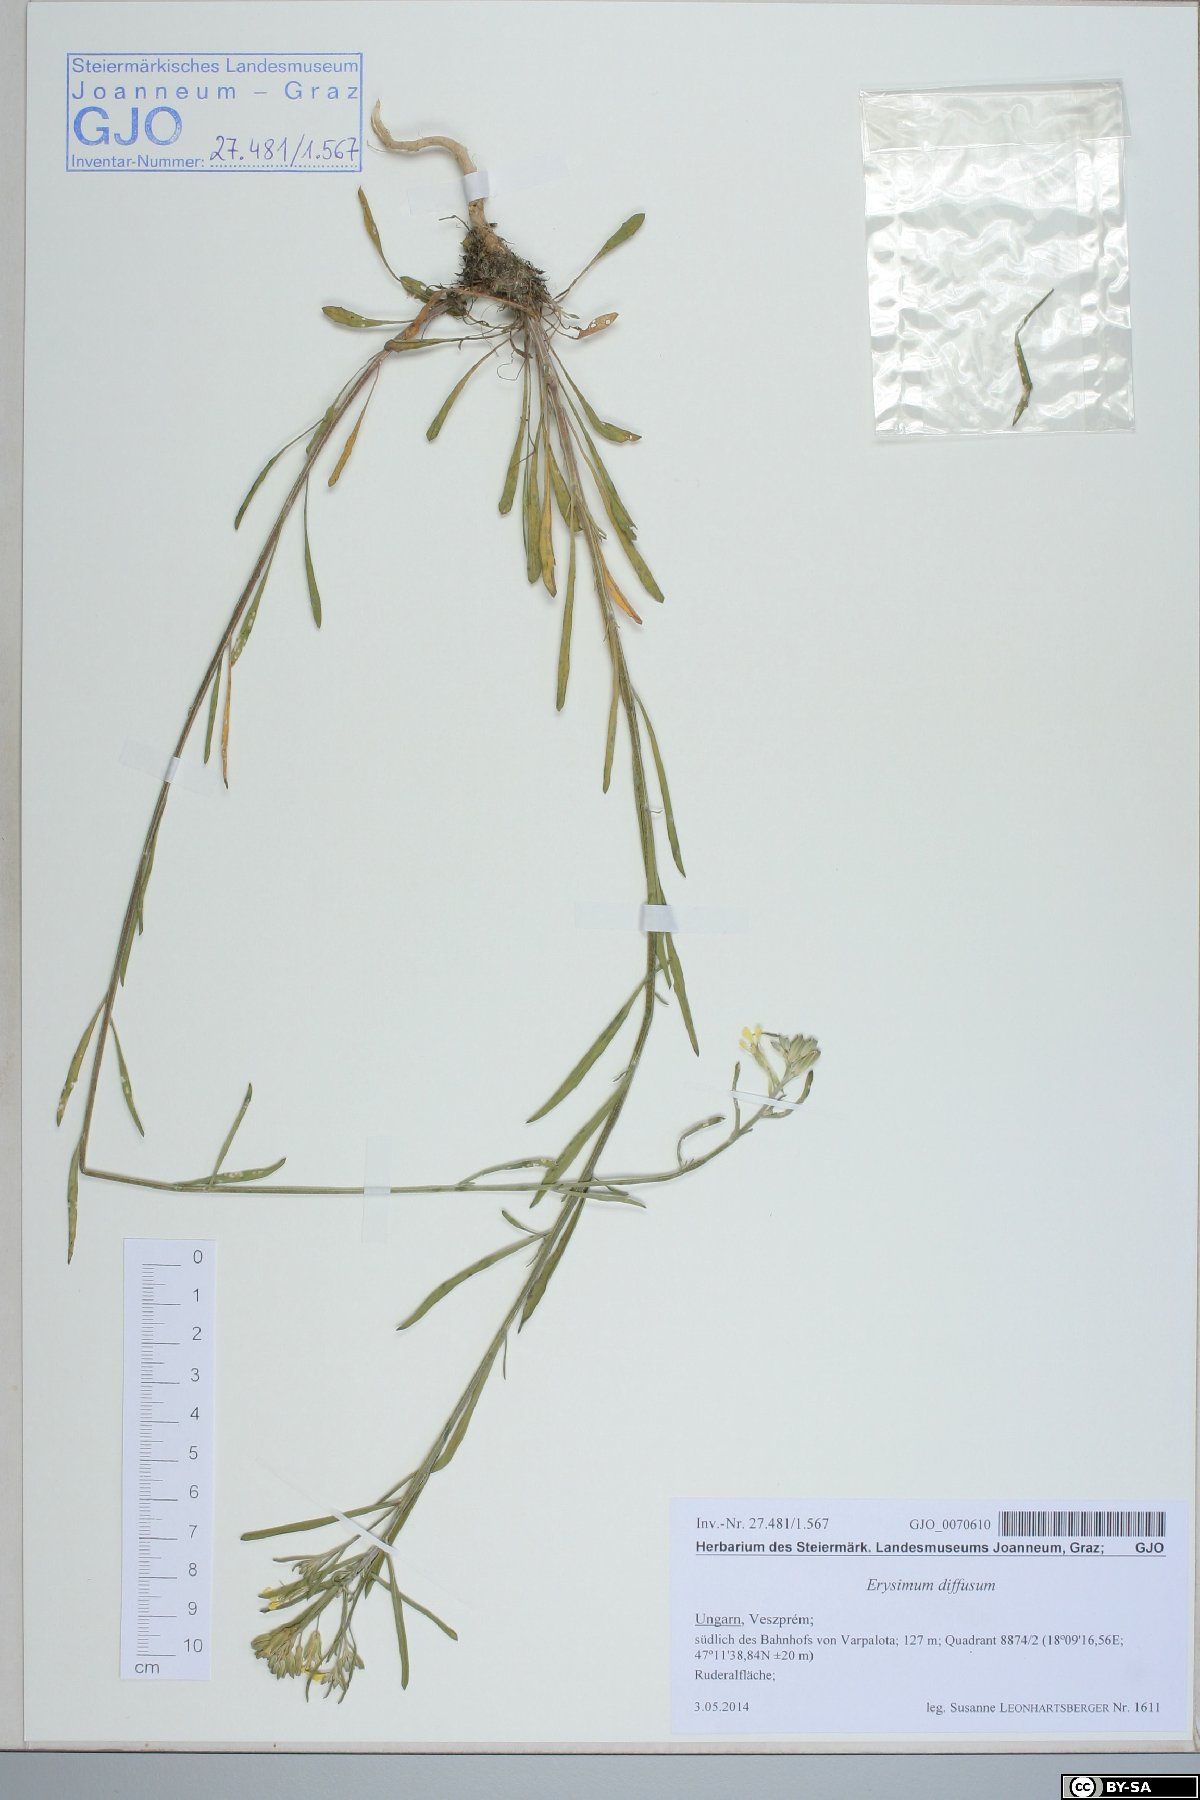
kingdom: Plantae
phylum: Tracheophyta
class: Magnoliopsida
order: Brassicales
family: Brassicaceae
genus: Erysimum
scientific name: Erysimum diffusum
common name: Diffuse wallflower
